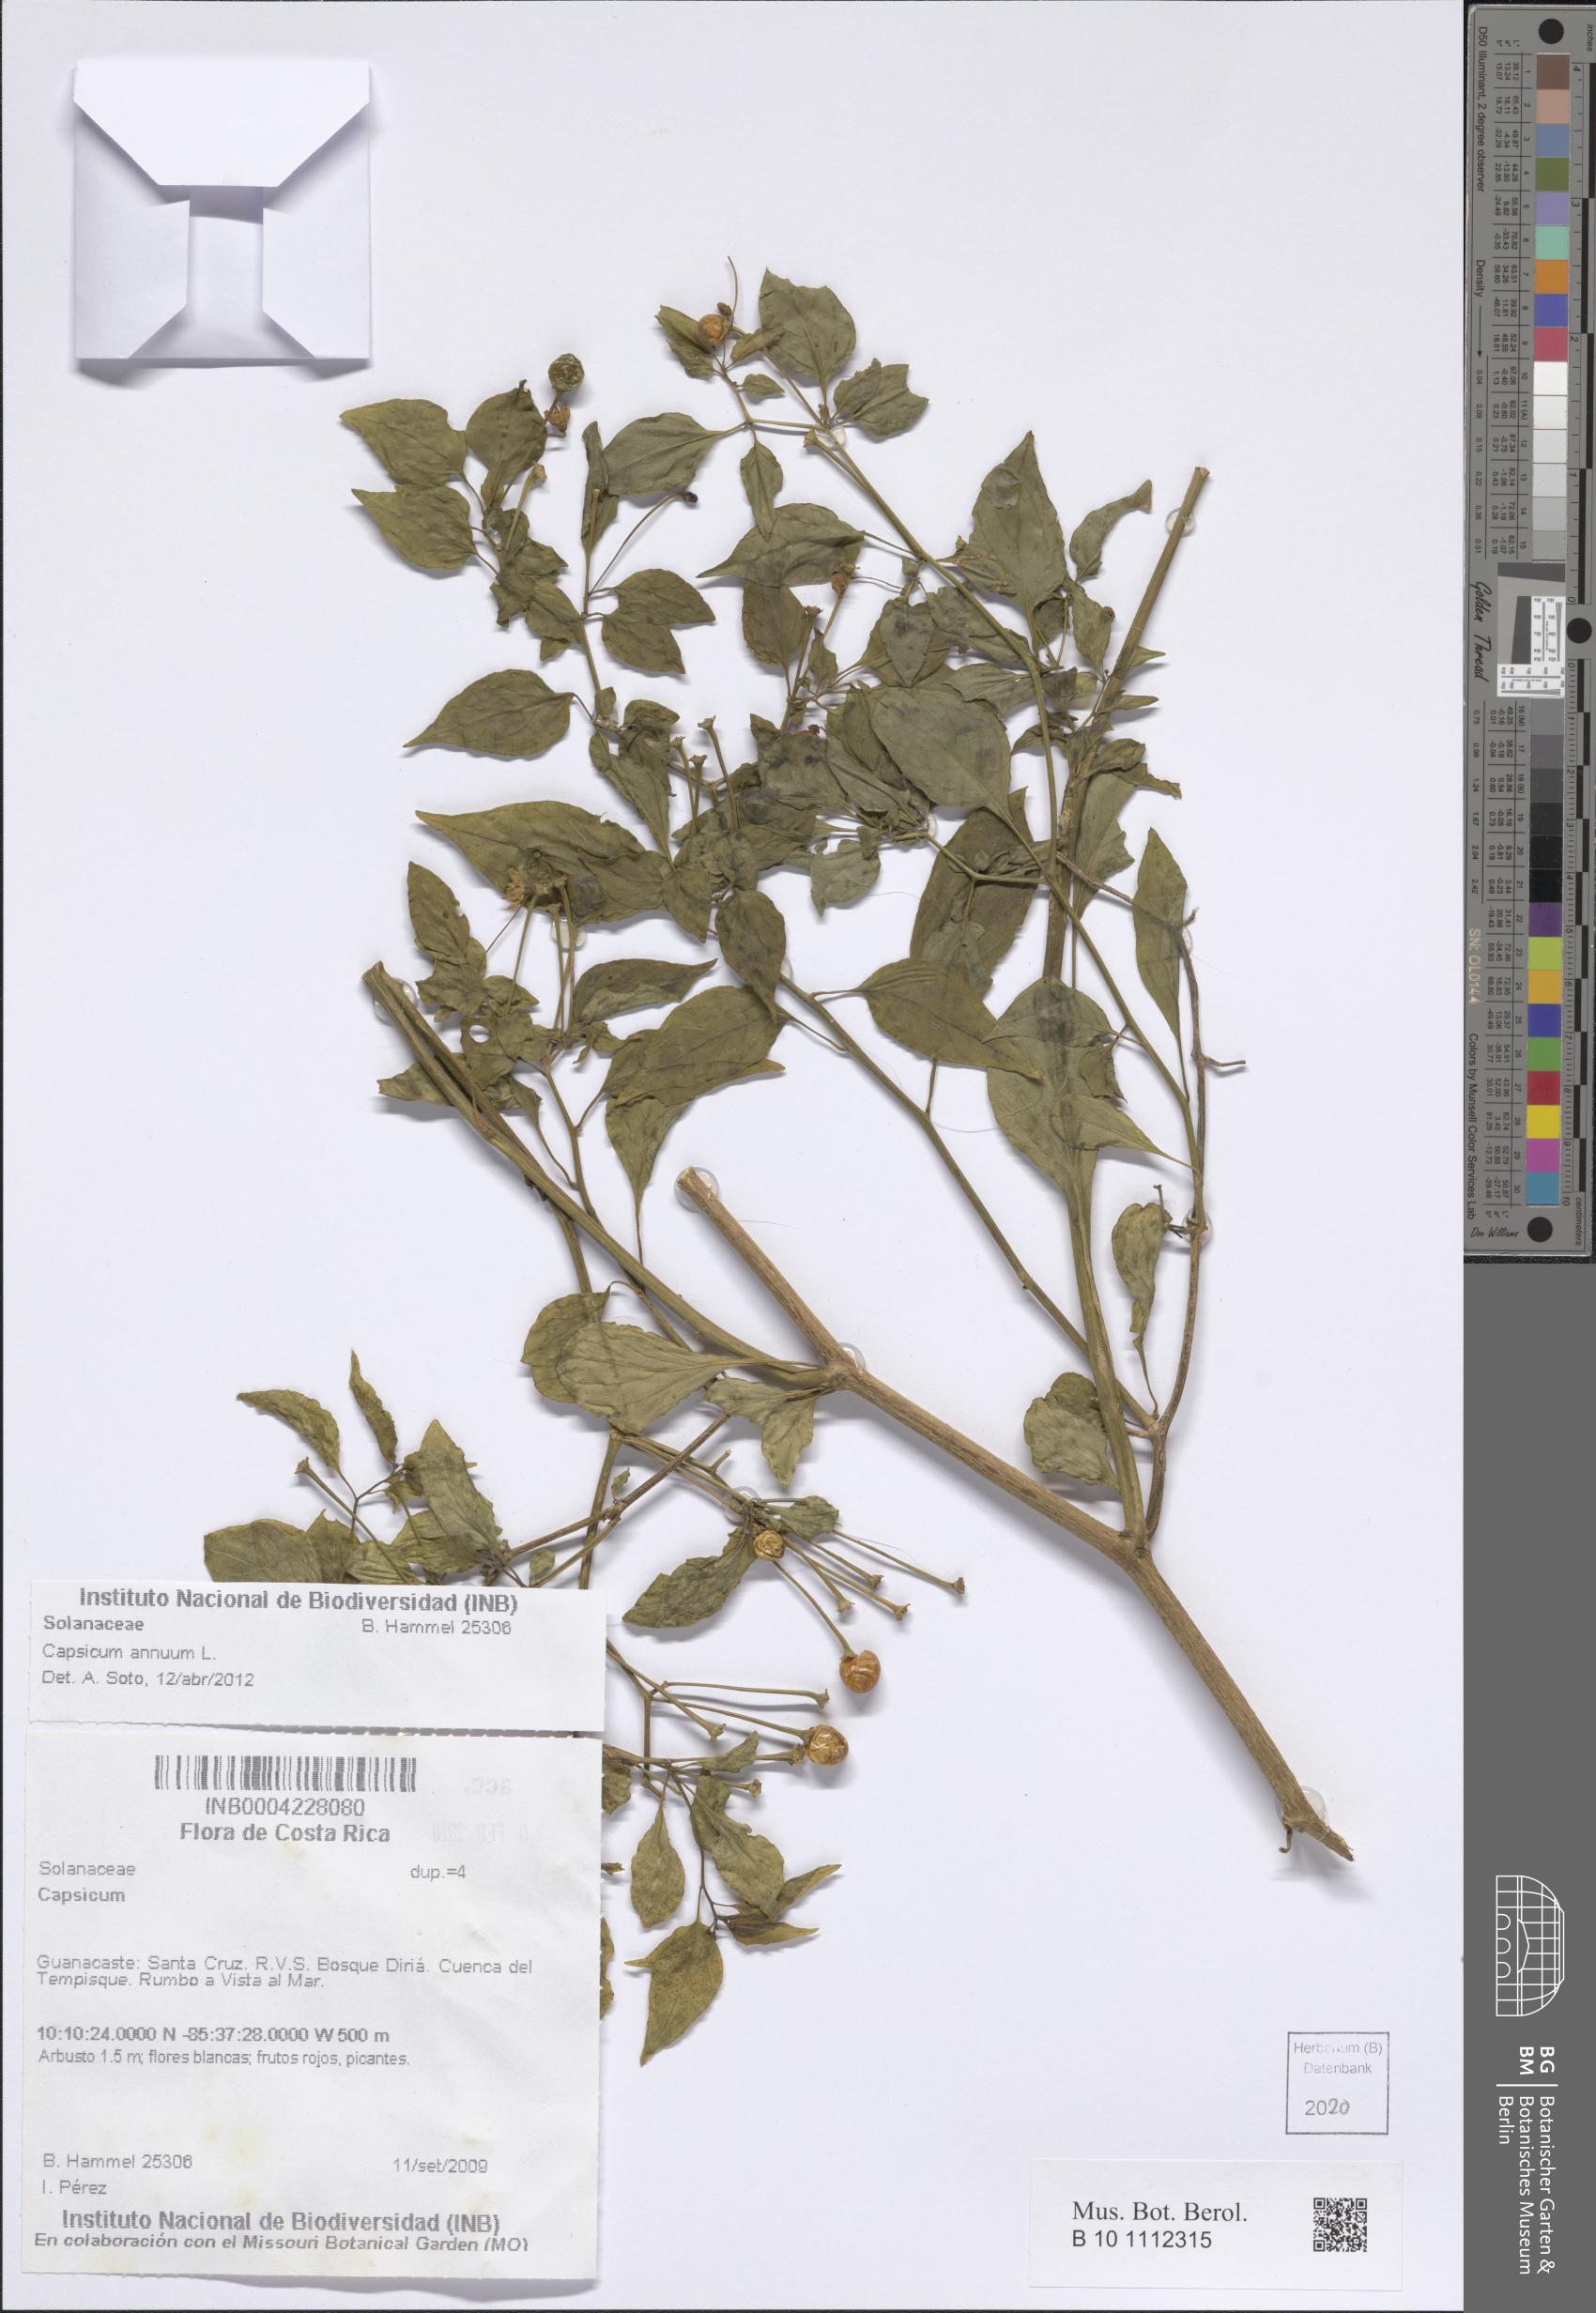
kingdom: Plantae
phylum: Tracheophyta
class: Magnoliopsida
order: Solanales
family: Solanaceae
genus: Capsicum
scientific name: Capsicum annuum
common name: Sweet pepper
